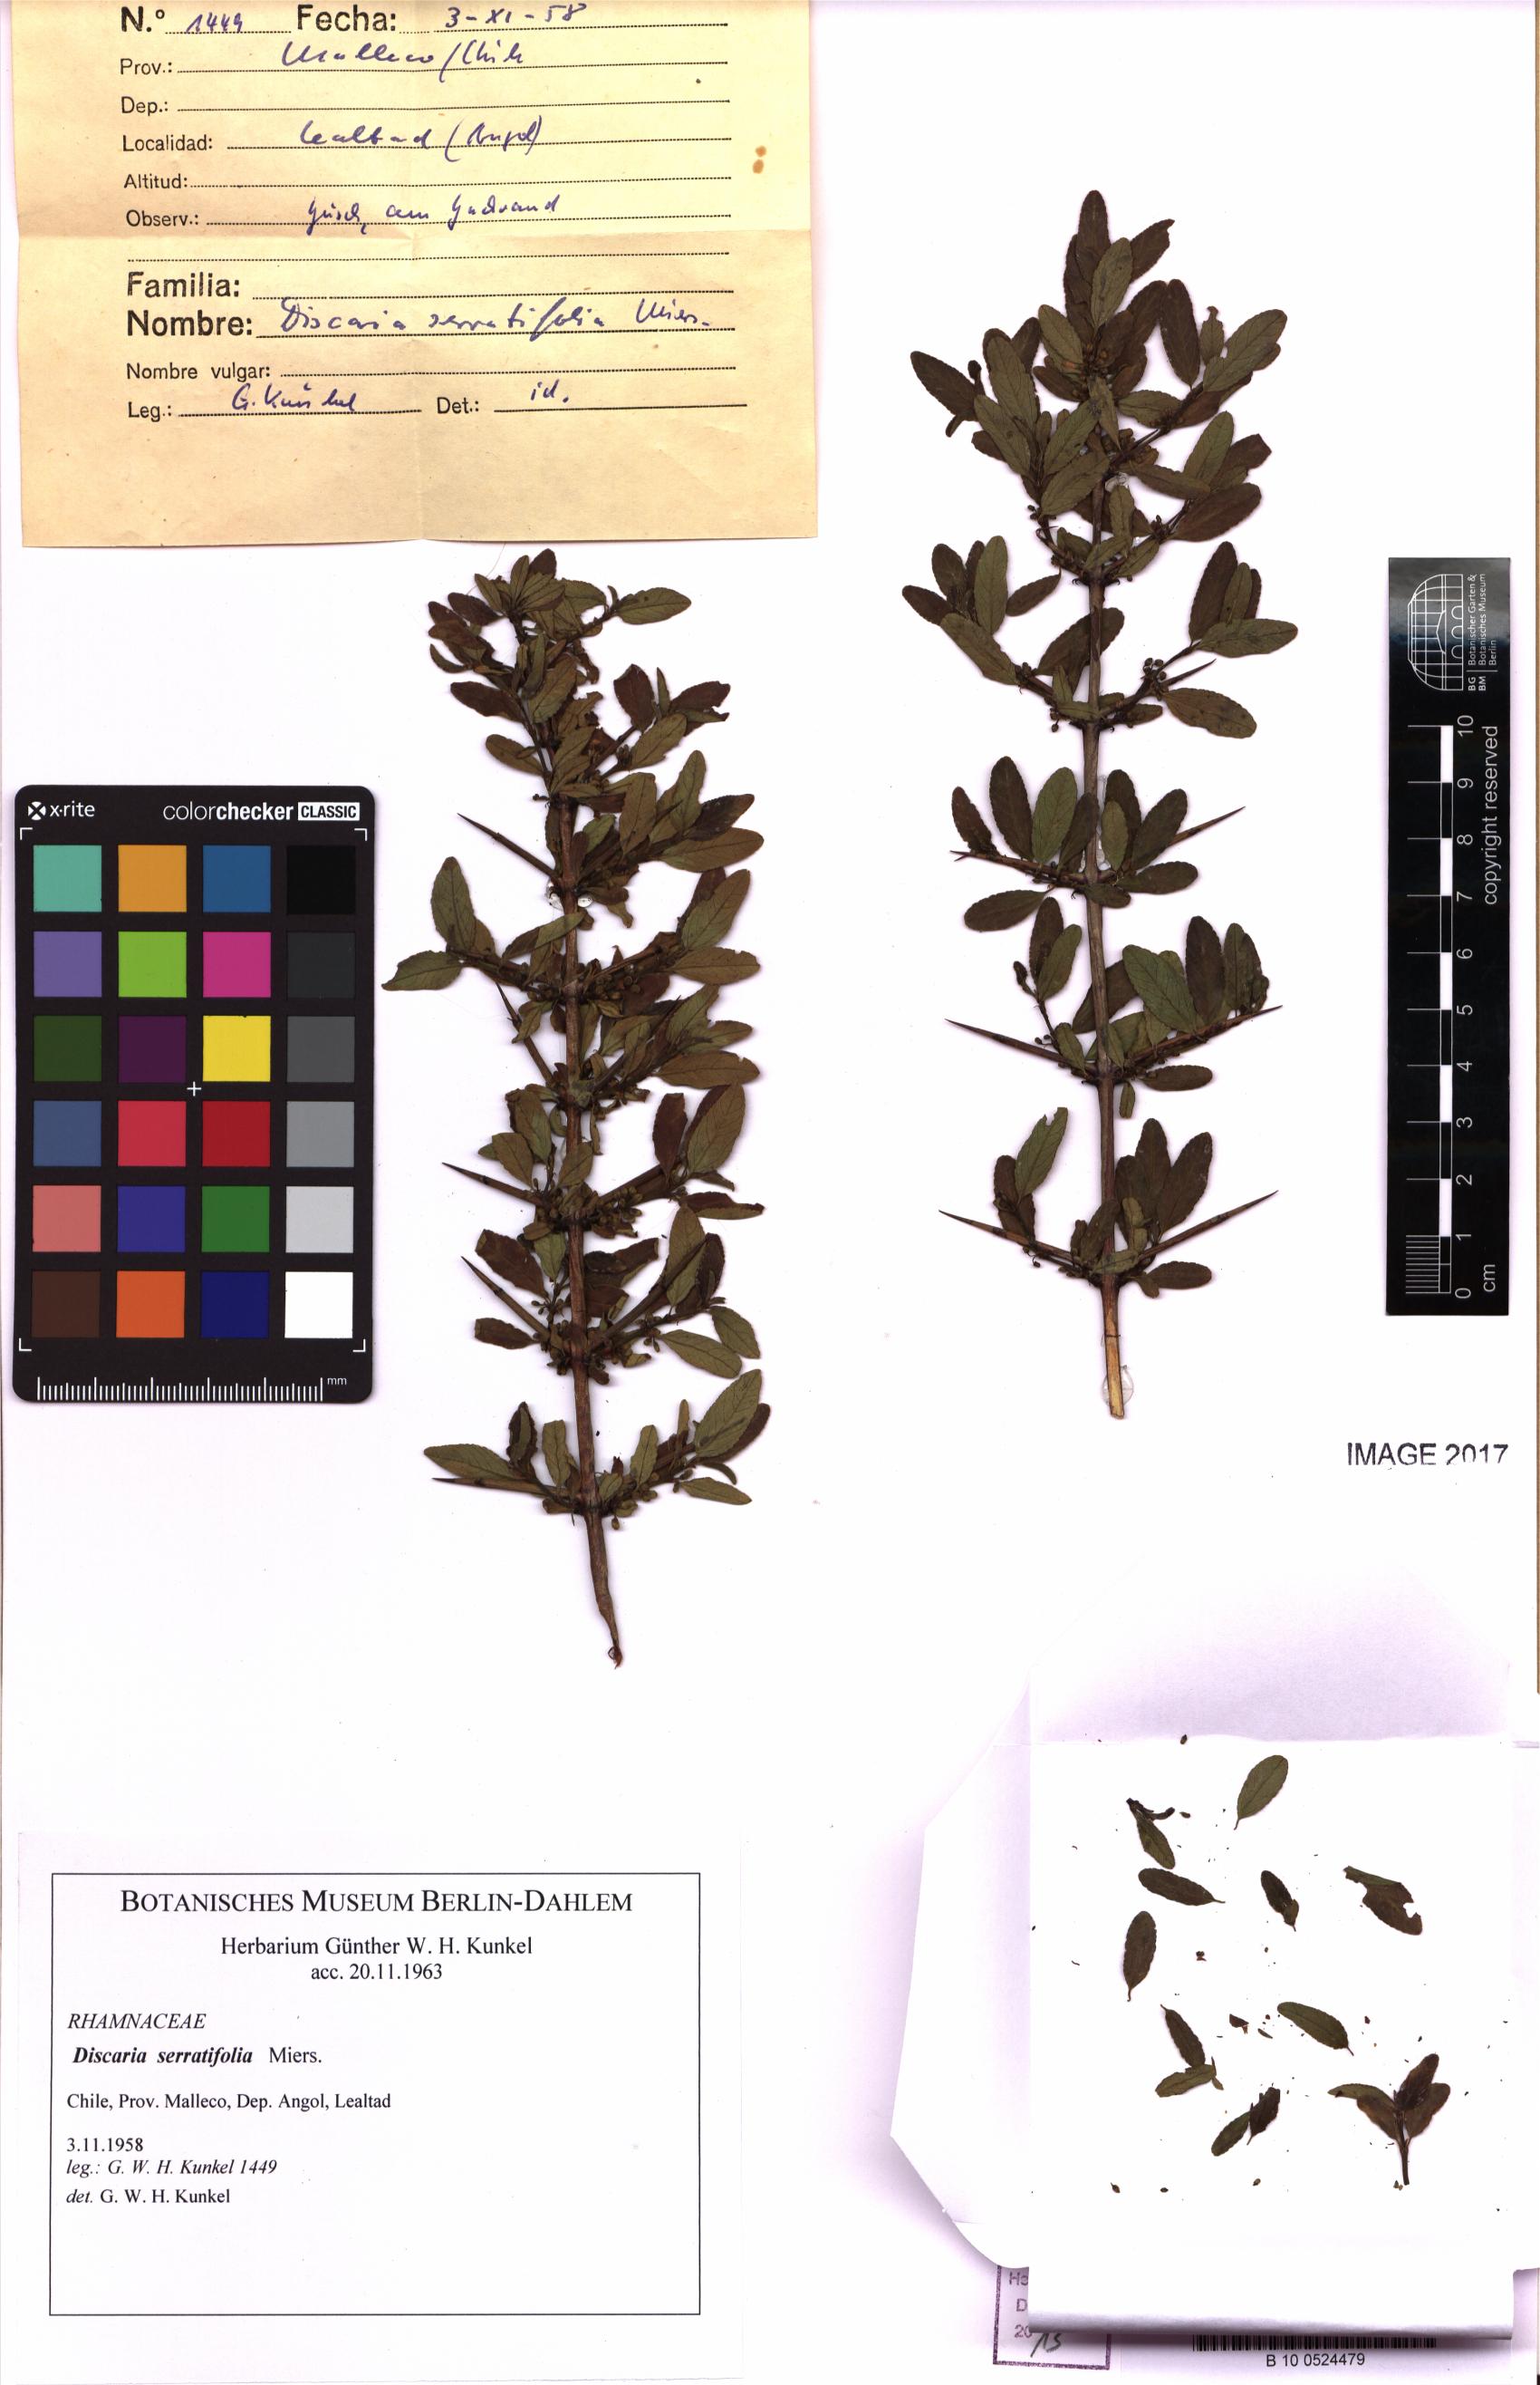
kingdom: Plantae
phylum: Tracheophyta
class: Magnoliopsida
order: Rosales
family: Rhamnaceae
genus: Discaria
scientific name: Discaria serratifolia
